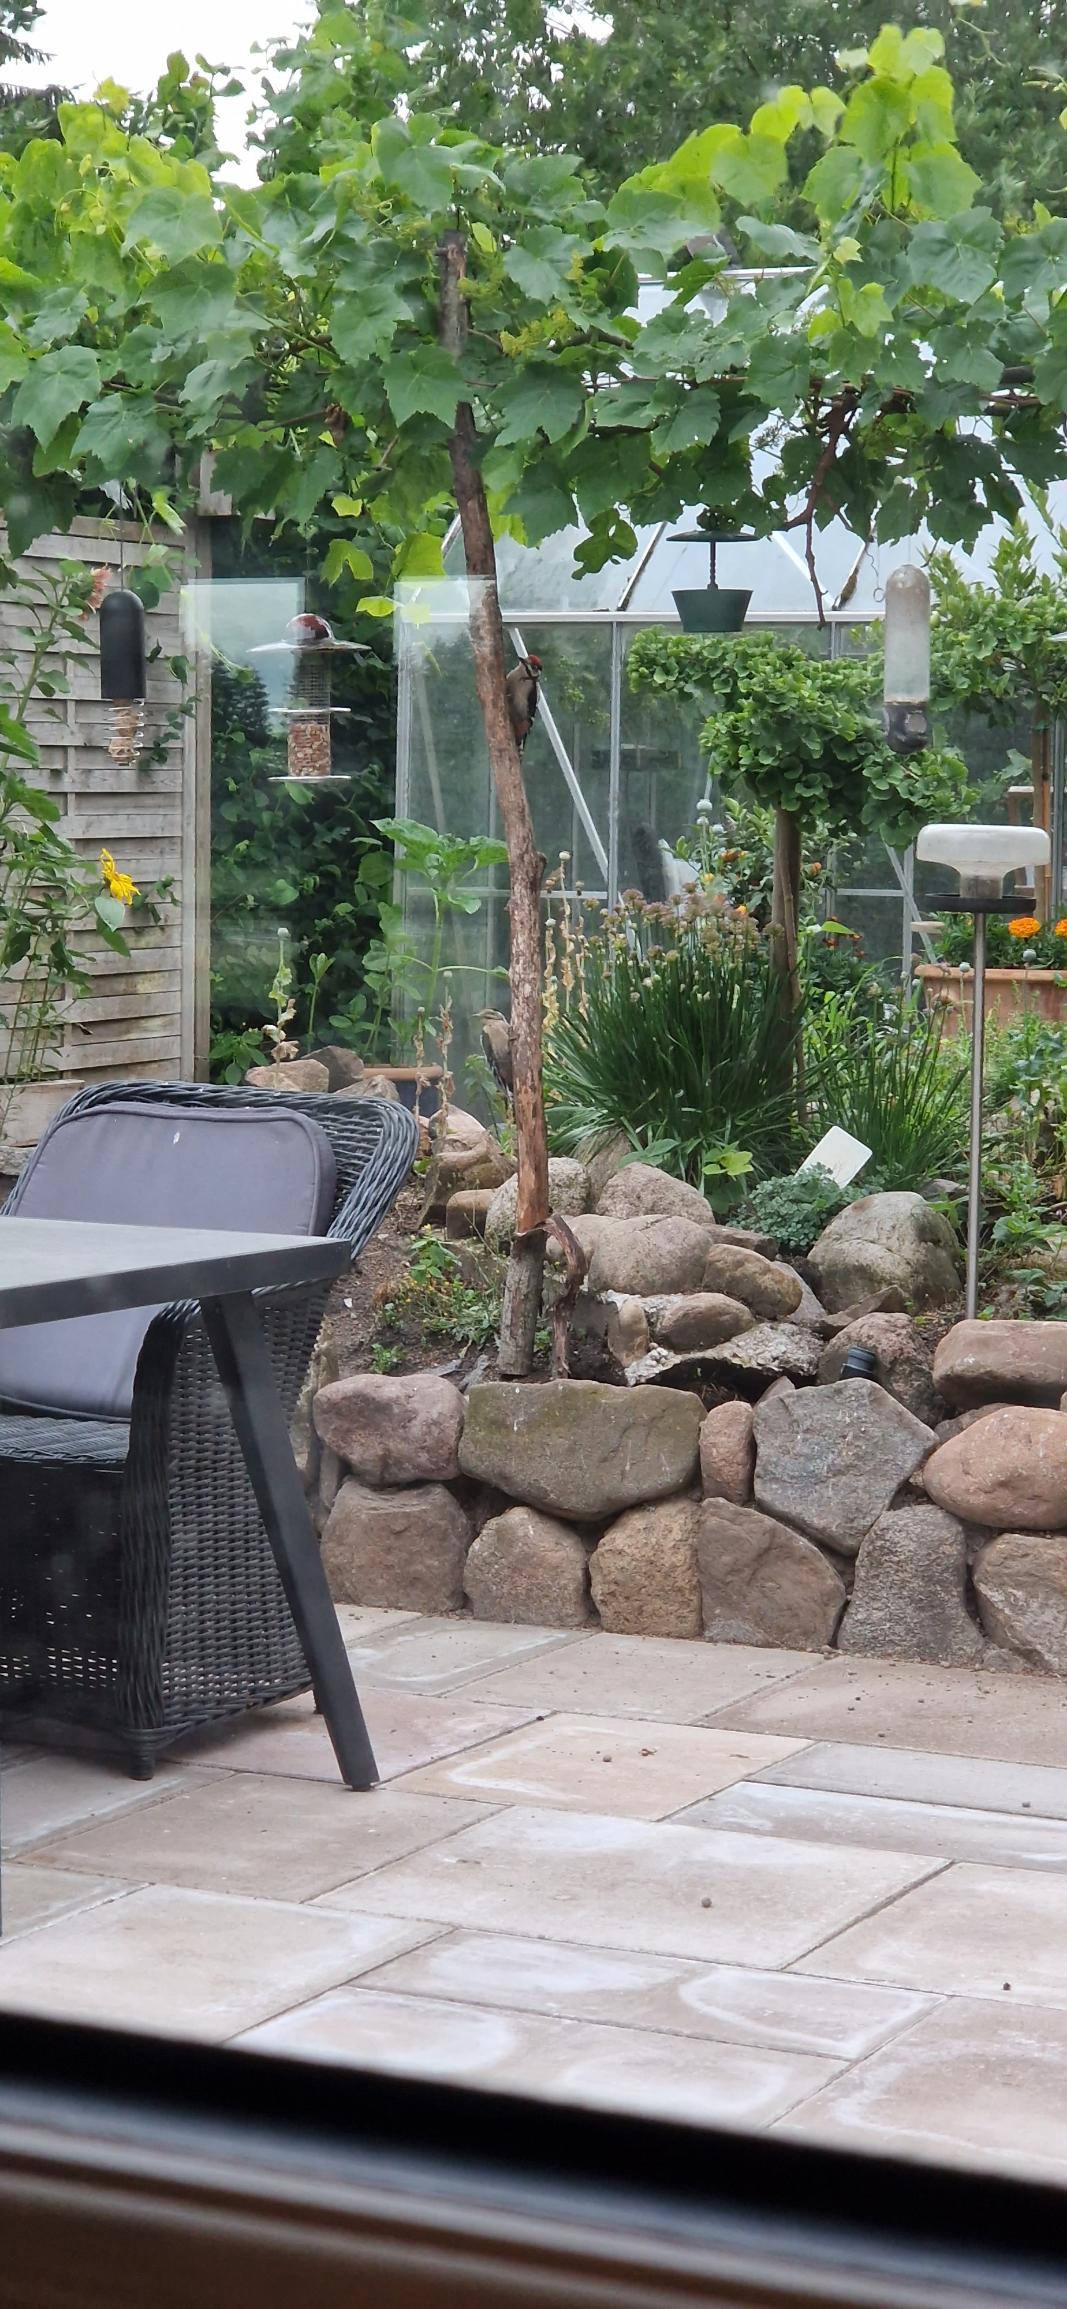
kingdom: Animalia
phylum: Chordata
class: Aves
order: Piciformes
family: Picidae
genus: Dendrocopos
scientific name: Dendrocopos major
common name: Stor flagspætte
